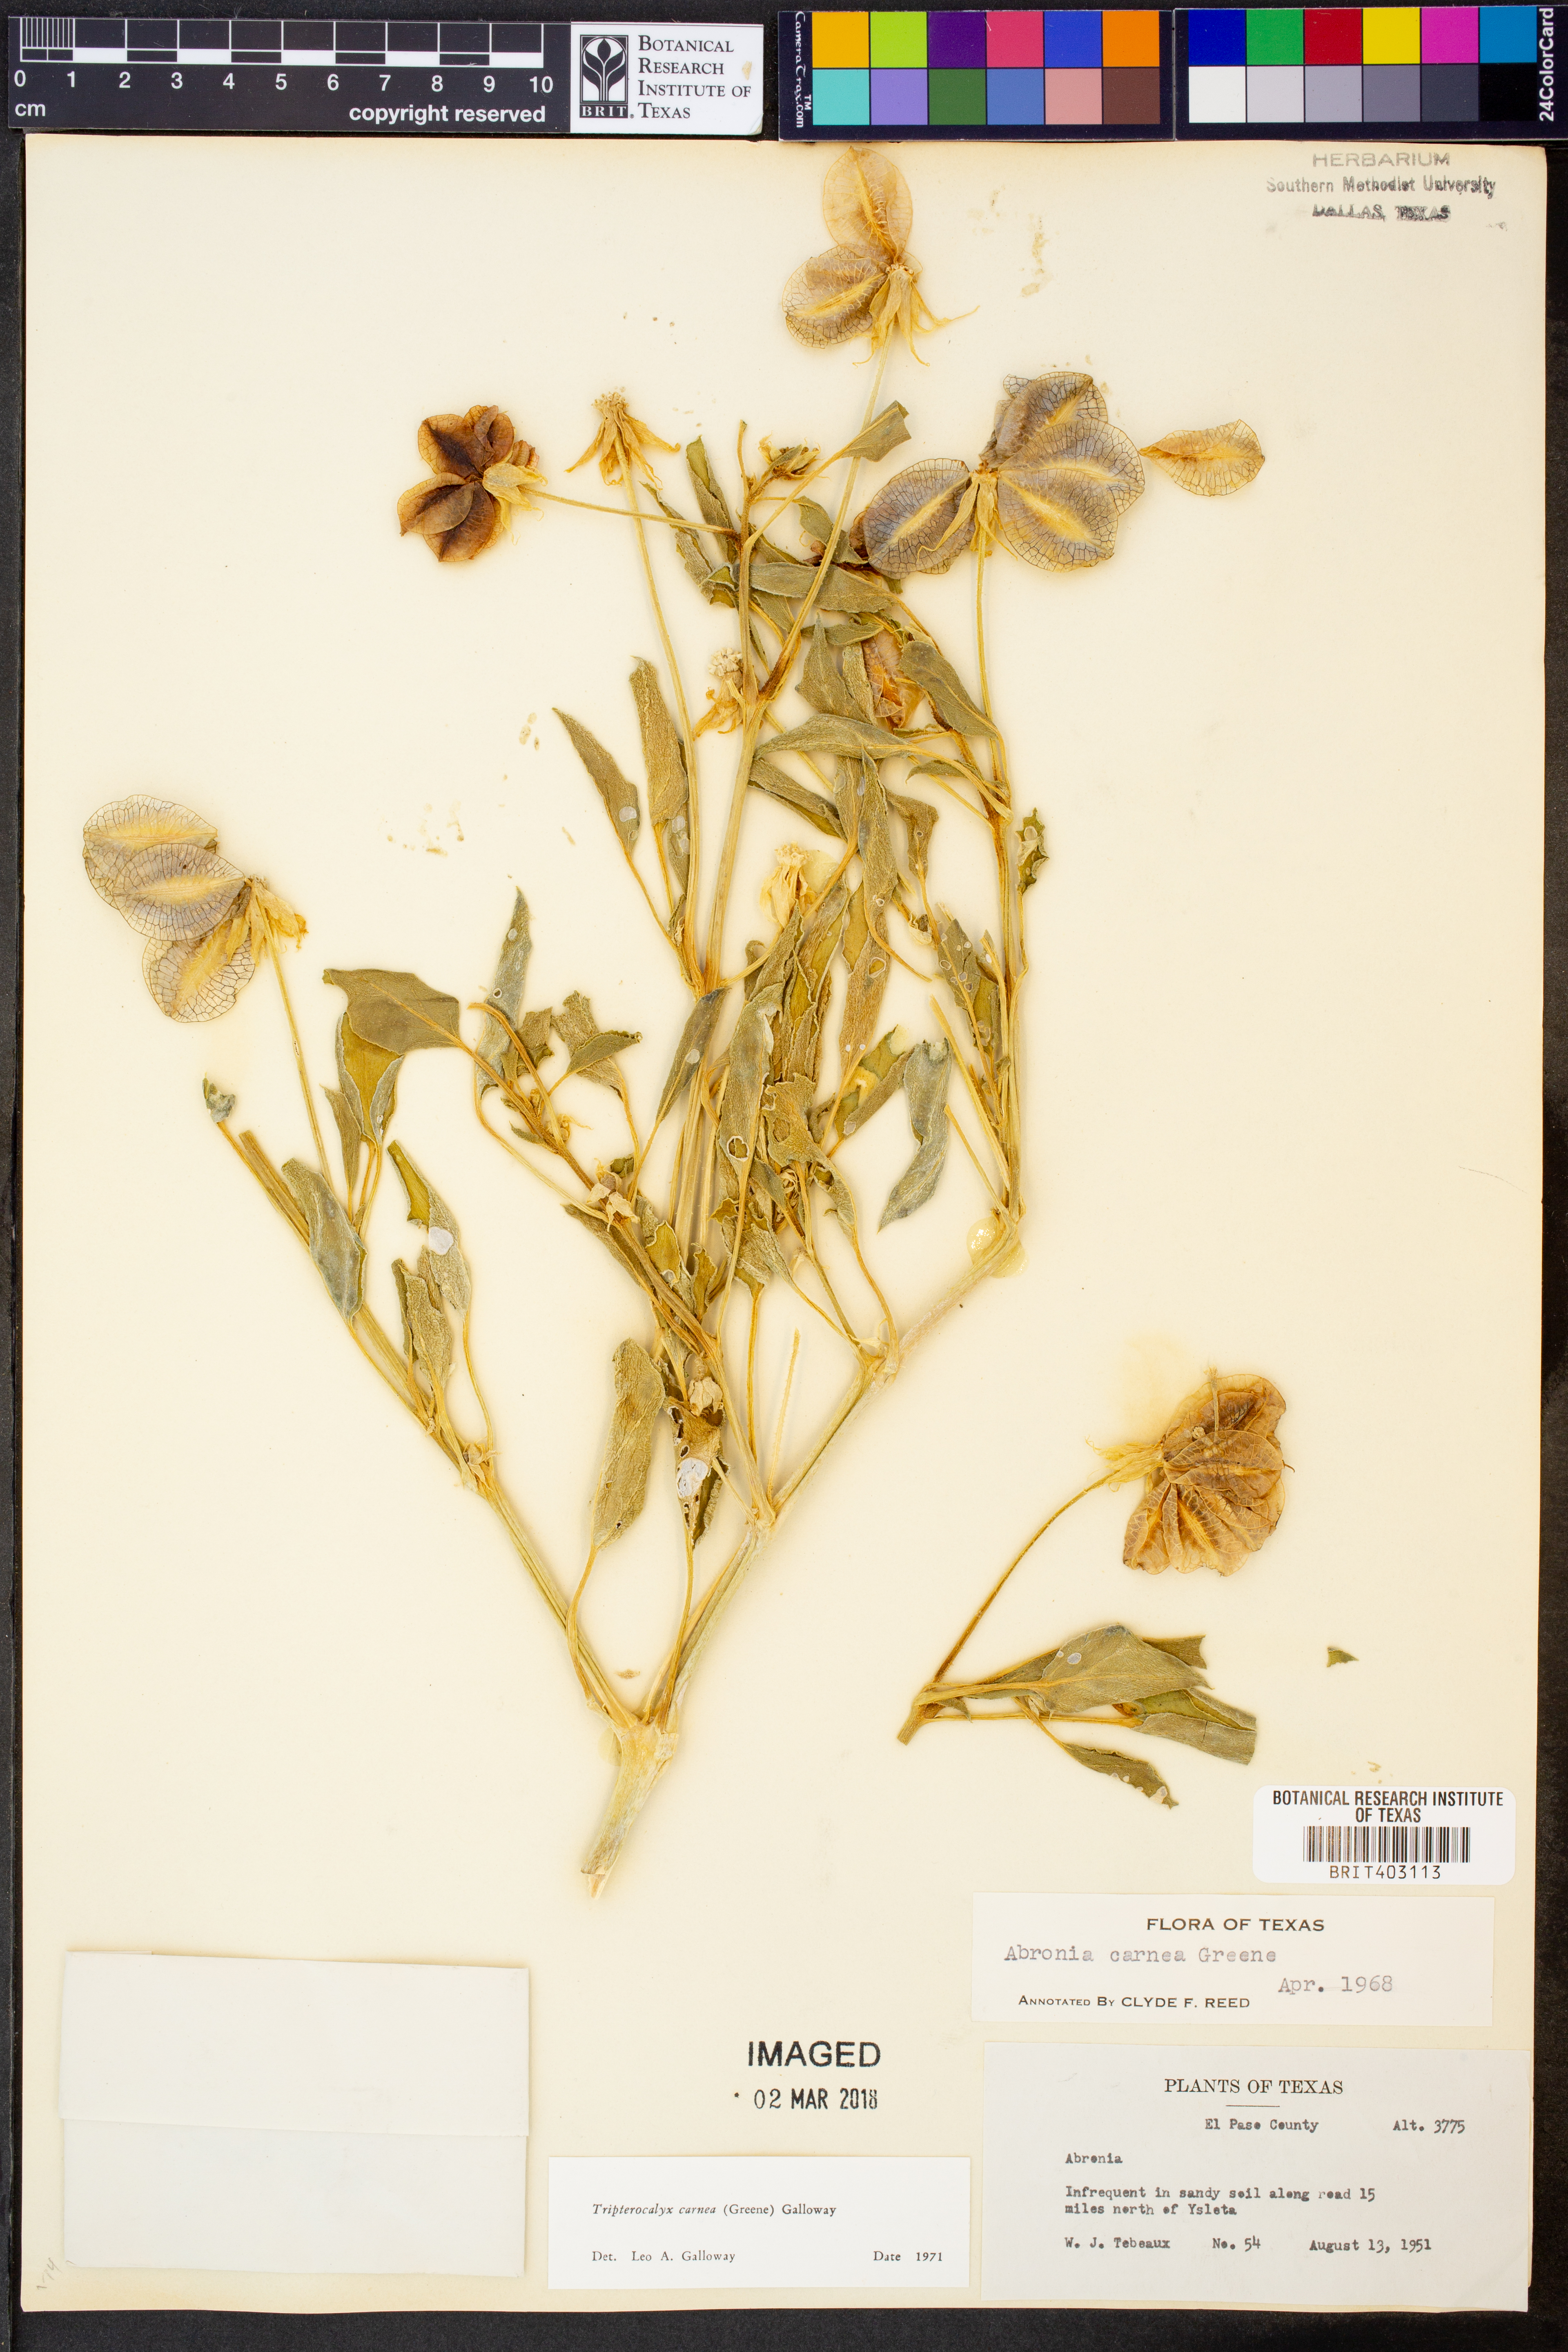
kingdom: Plantae
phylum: Tracheophyta
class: Magnoliopsida
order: Caryophyllales
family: Nyctaginaceae
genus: Tripterocalyx
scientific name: Tripterocalyx carneus
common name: Winged sandpuffs
